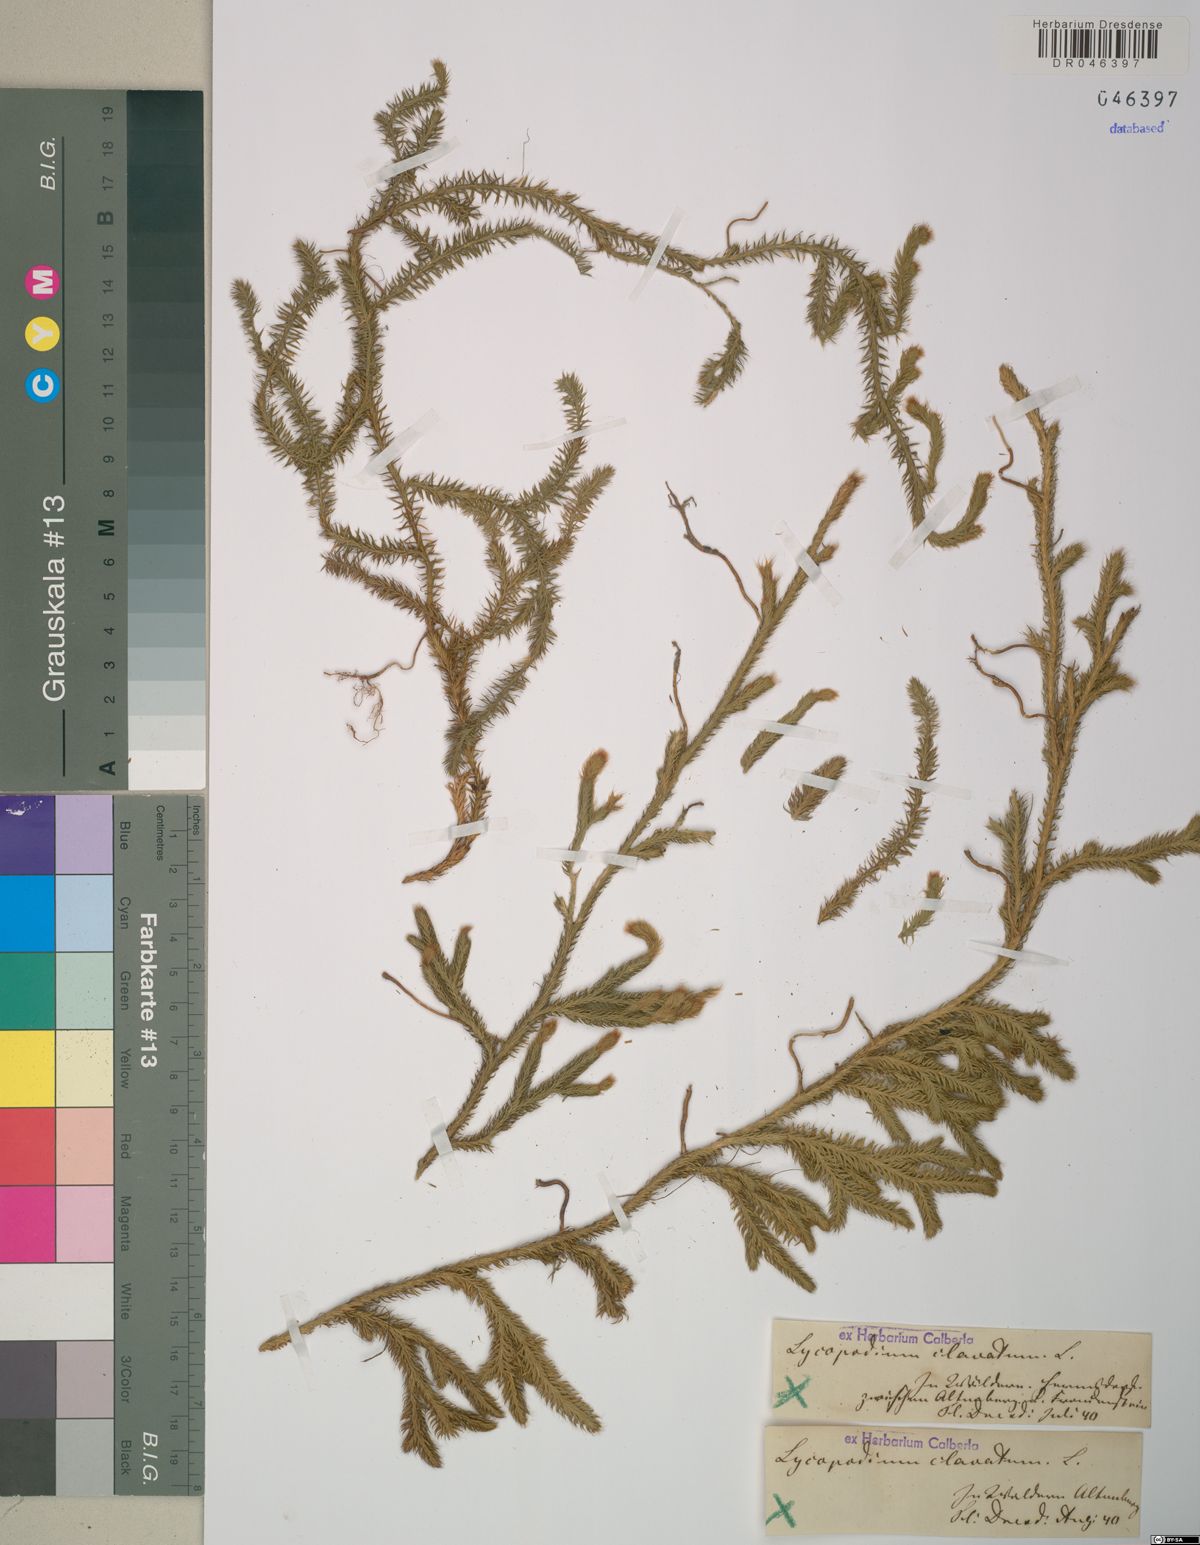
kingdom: Plantae
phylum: Tracheophyta
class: Lycopodiopsida
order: Lycopodiales
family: Lycopodiaceae
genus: Lycopodium
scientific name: Lycopodium clavatum
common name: Stag's-horn clubmoss
